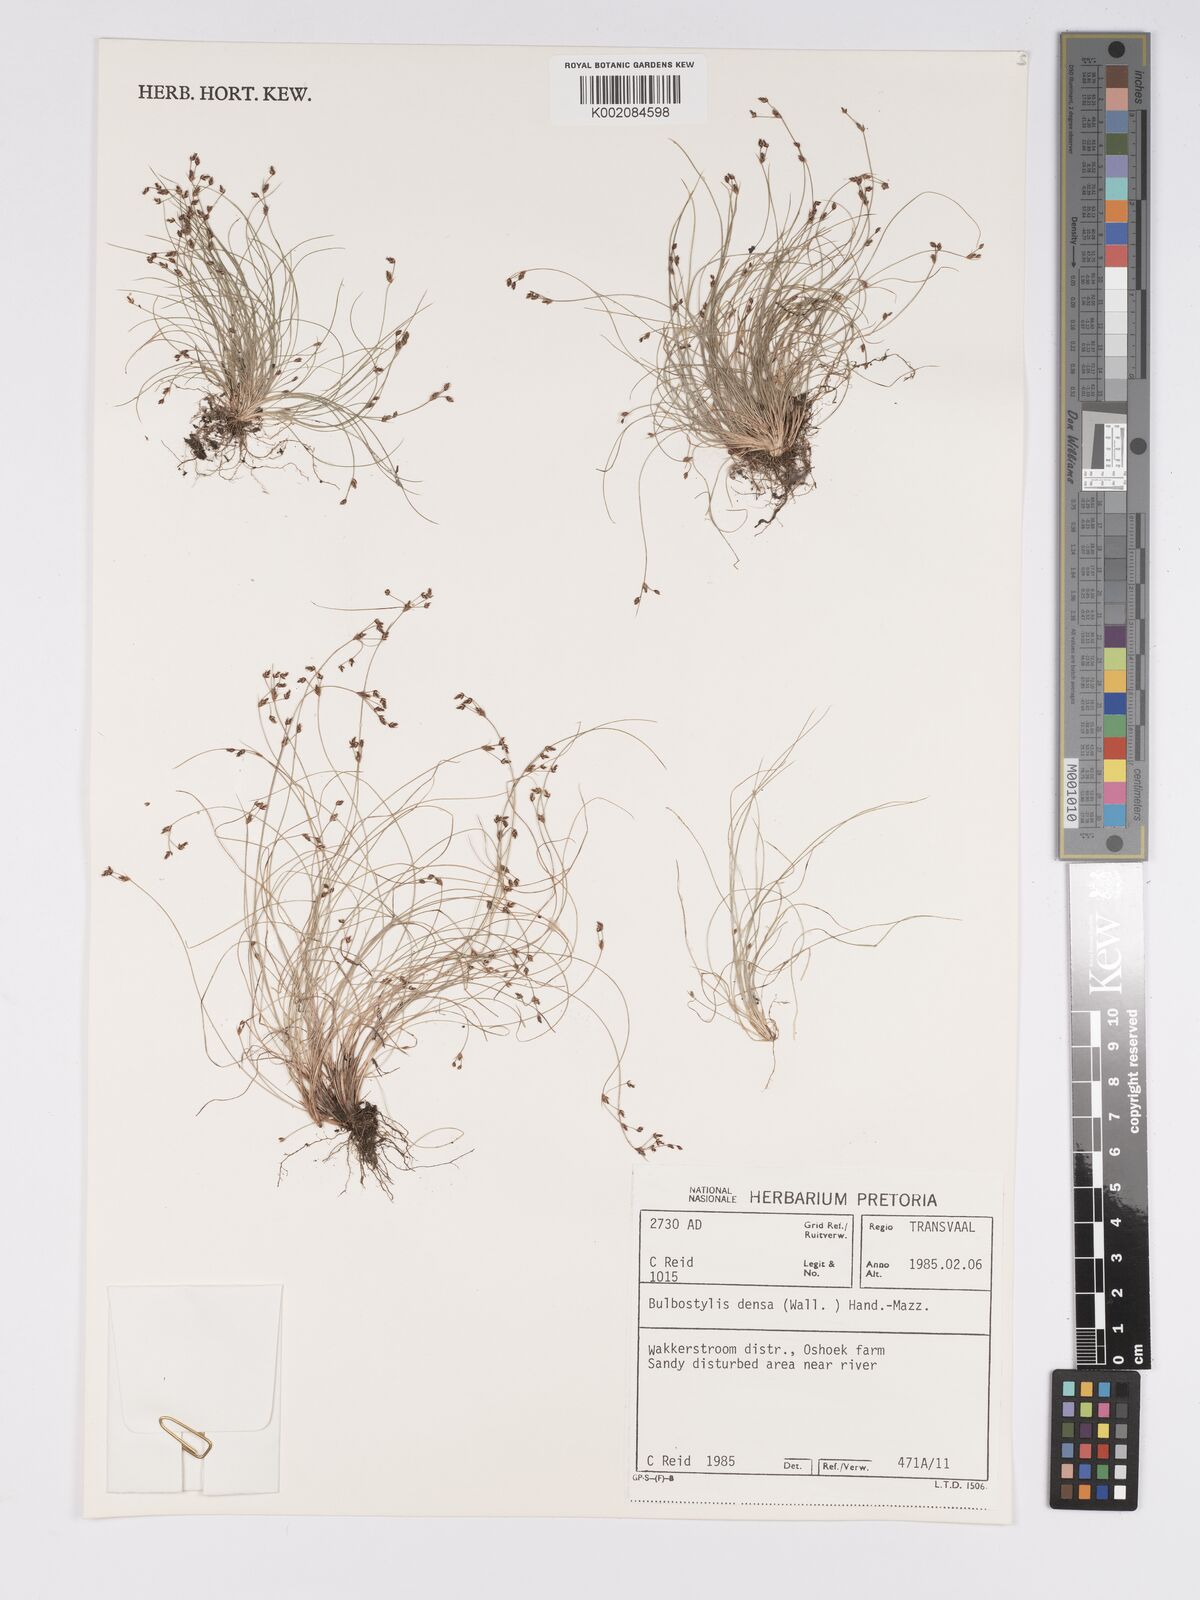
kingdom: Plantae
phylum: Tracheophyta
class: Liliopsida
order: Poales
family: Cyperaceae
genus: Bulbostylis
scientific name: Bulbostylis densa
